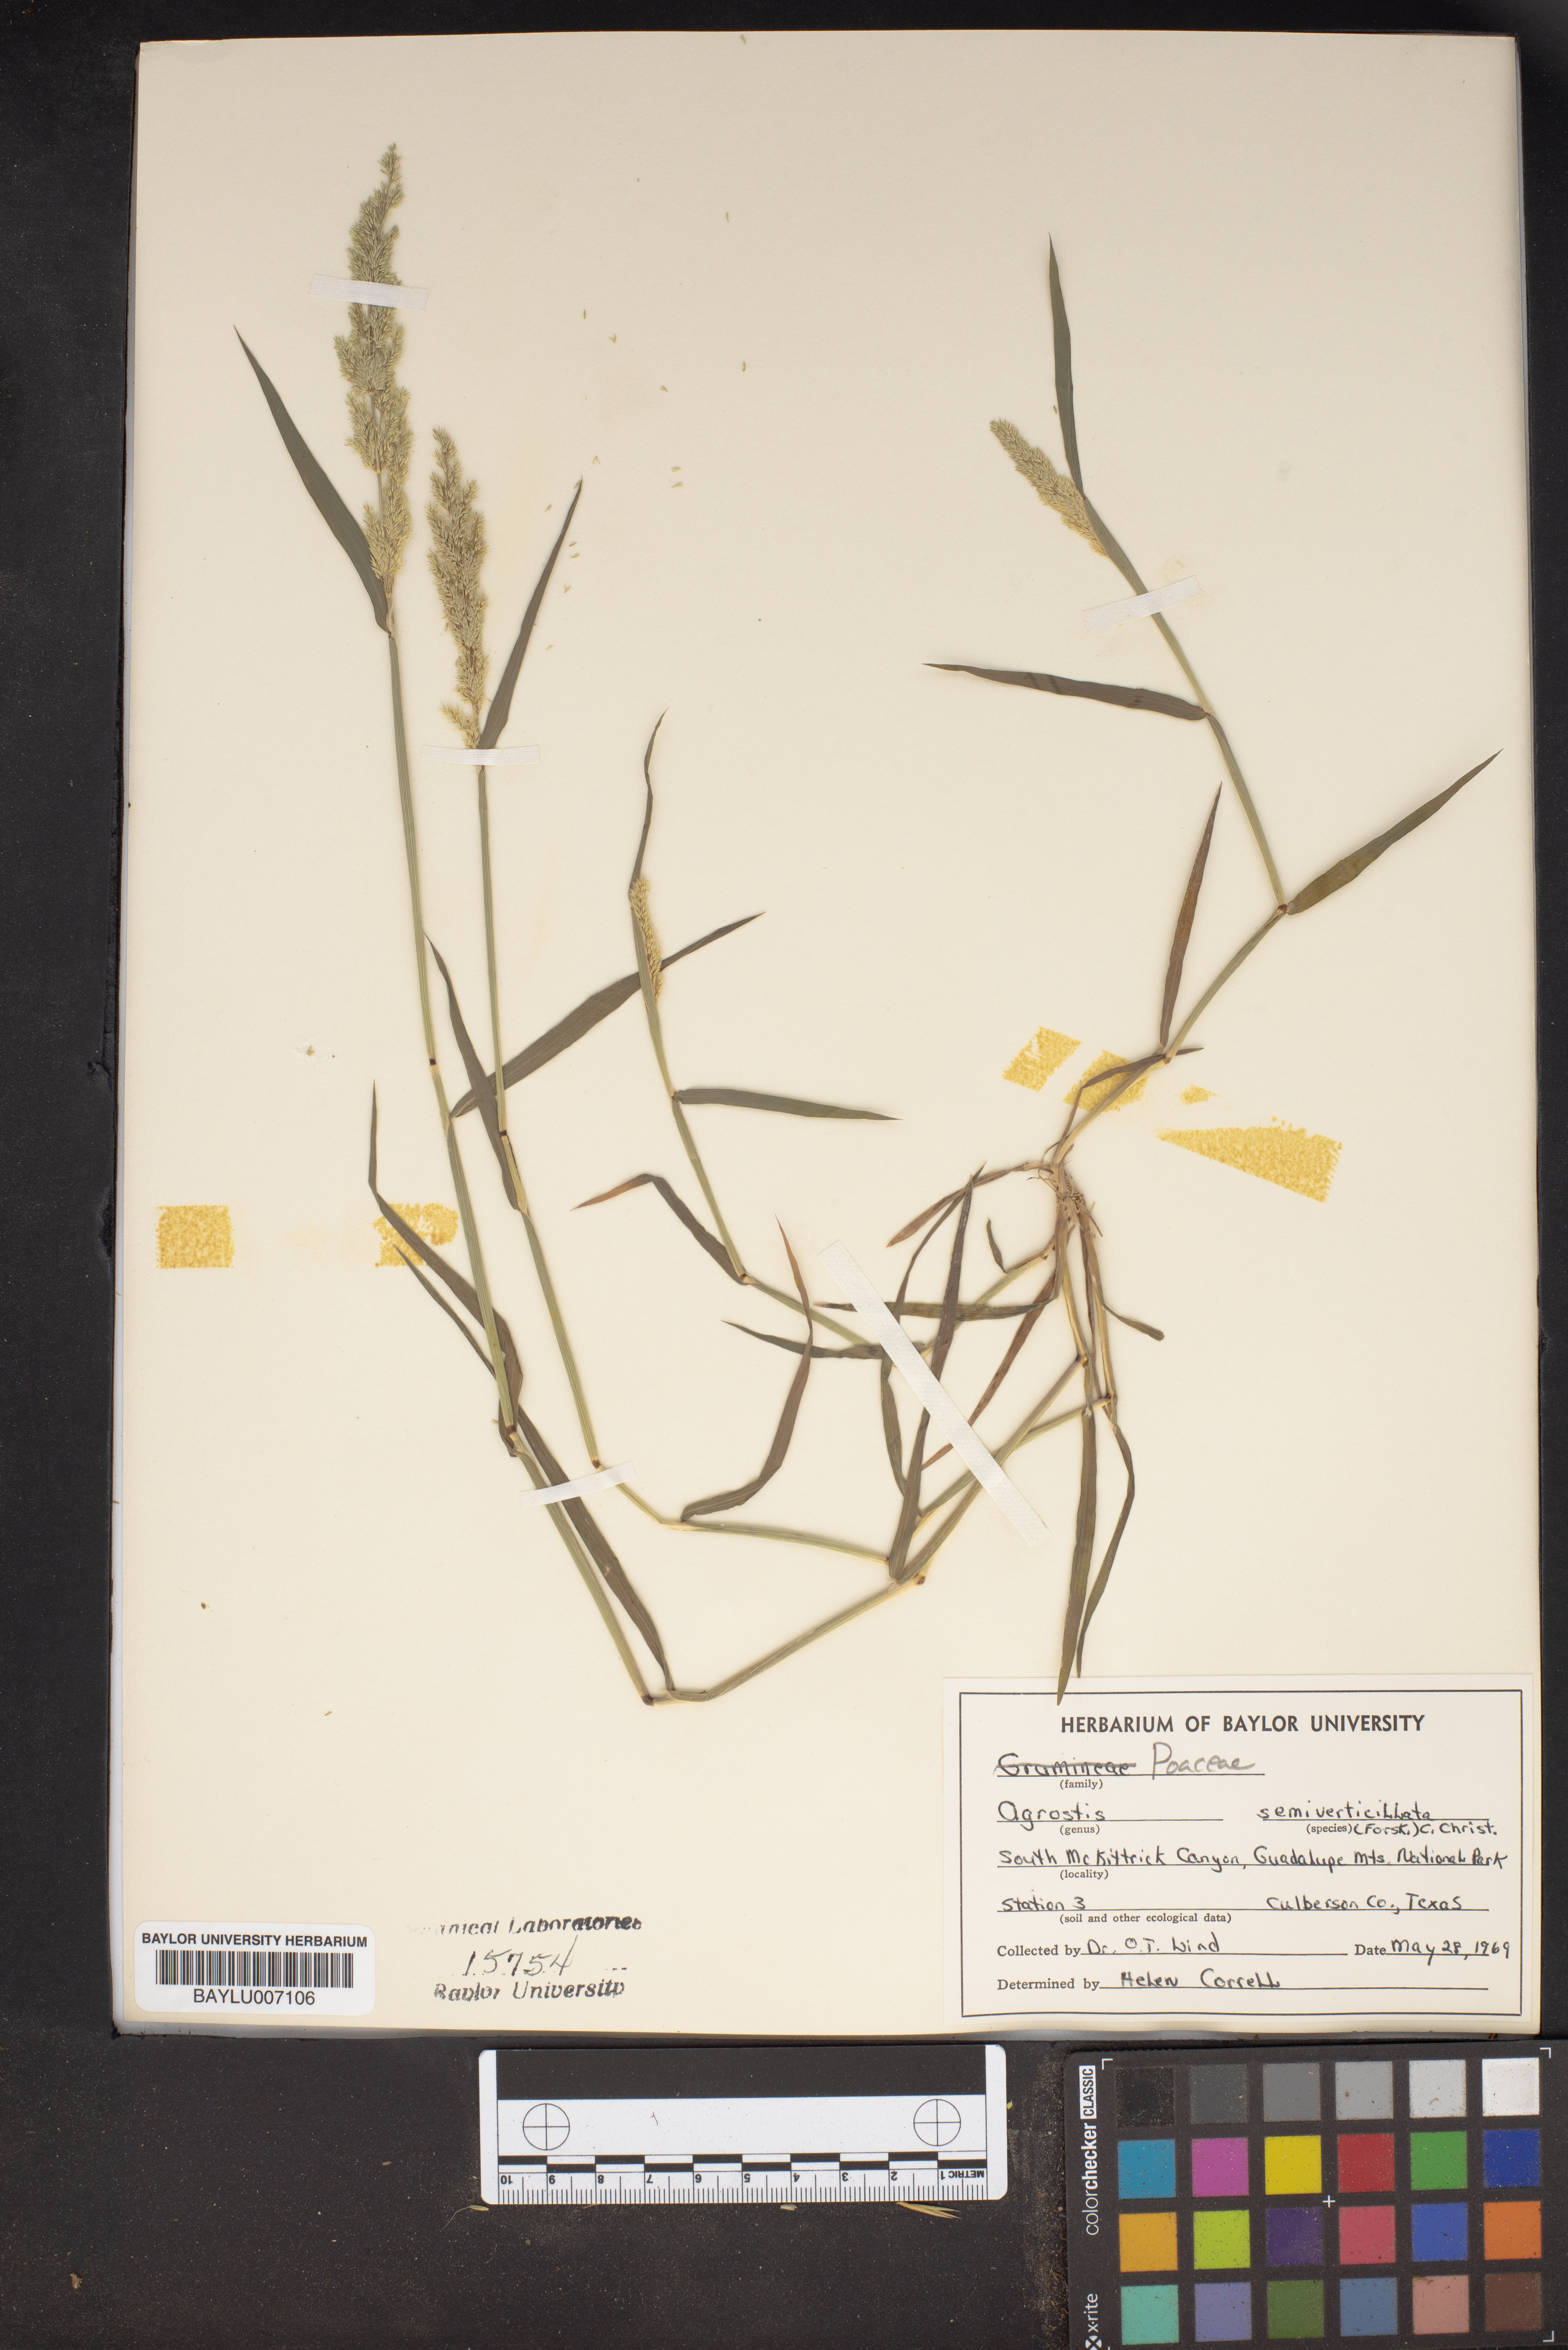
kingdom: Plantae
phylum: Tracheophyta
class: Liliopsida
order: Poales
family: Poaceae
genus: Polypogon
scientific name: Polypogon viridis
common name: Water bent
